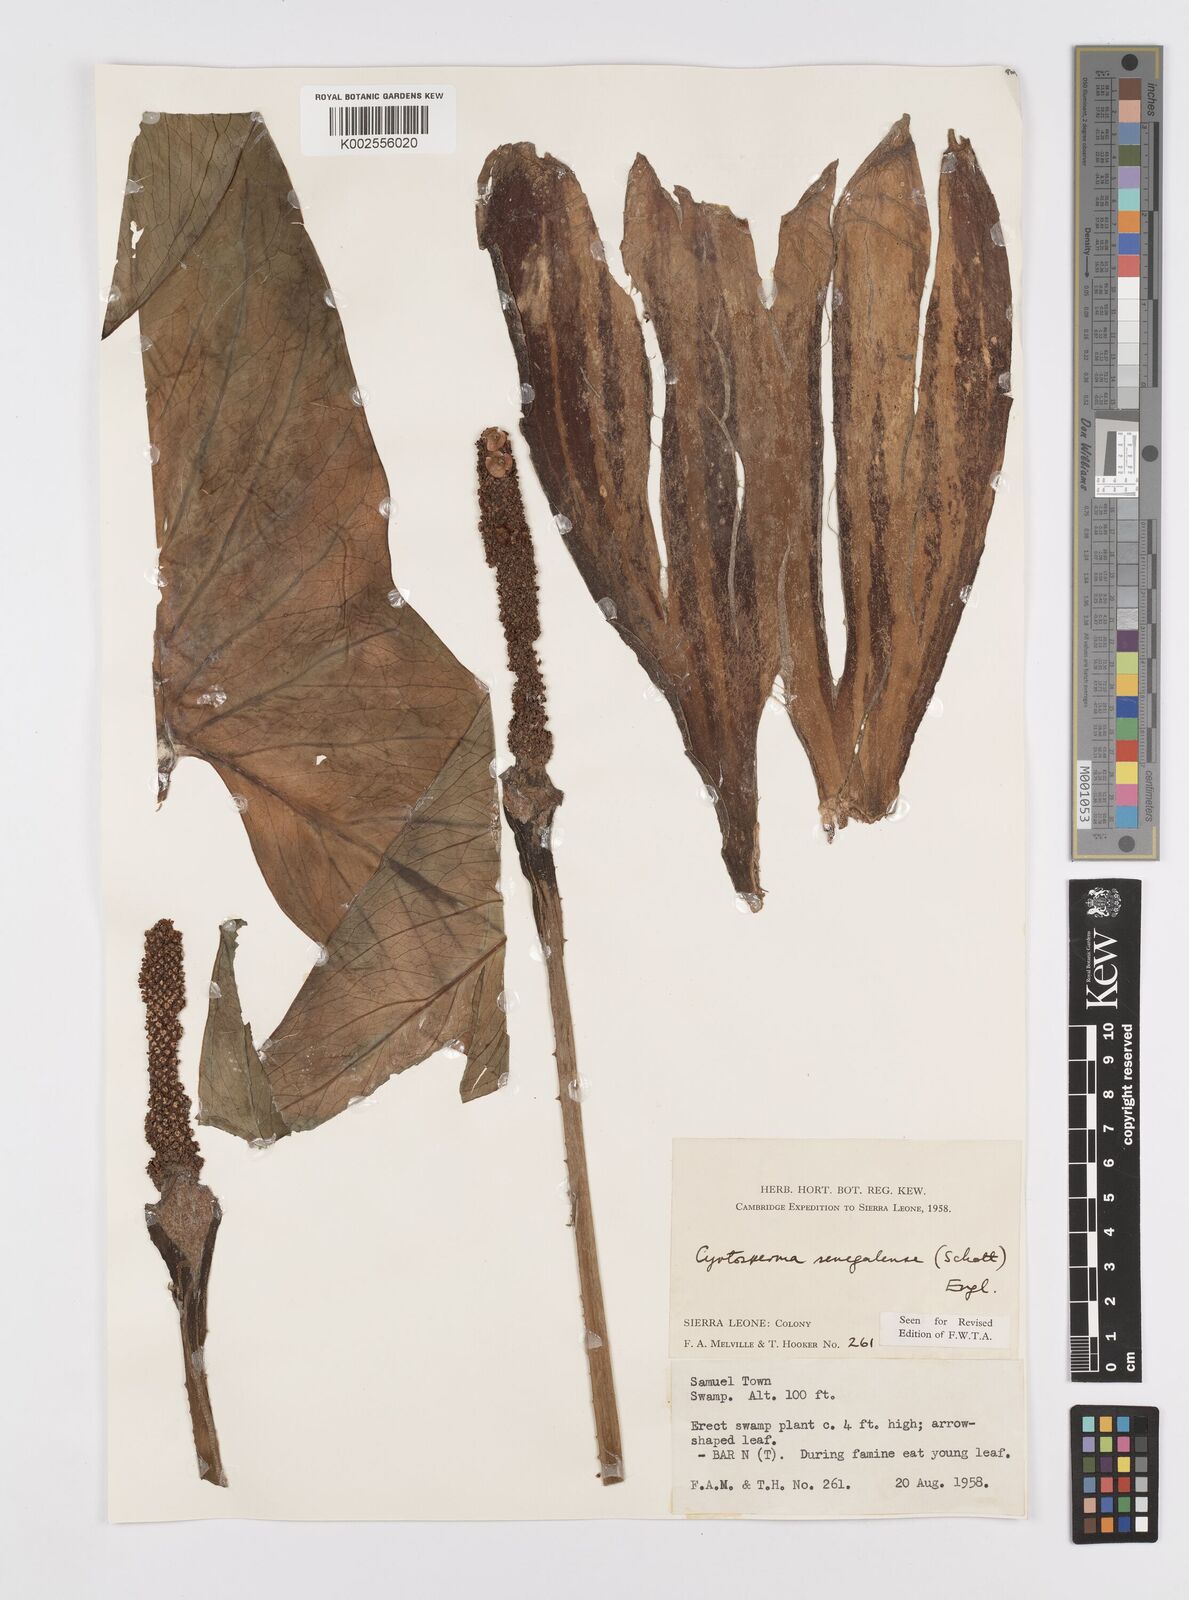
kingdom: Plantae
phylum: Tracheophyta
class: Liliopsida
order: Alismatales
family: Araceae
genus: Lasimorpha
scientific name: Lasimorpha senegalensis
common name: Swamp arum
